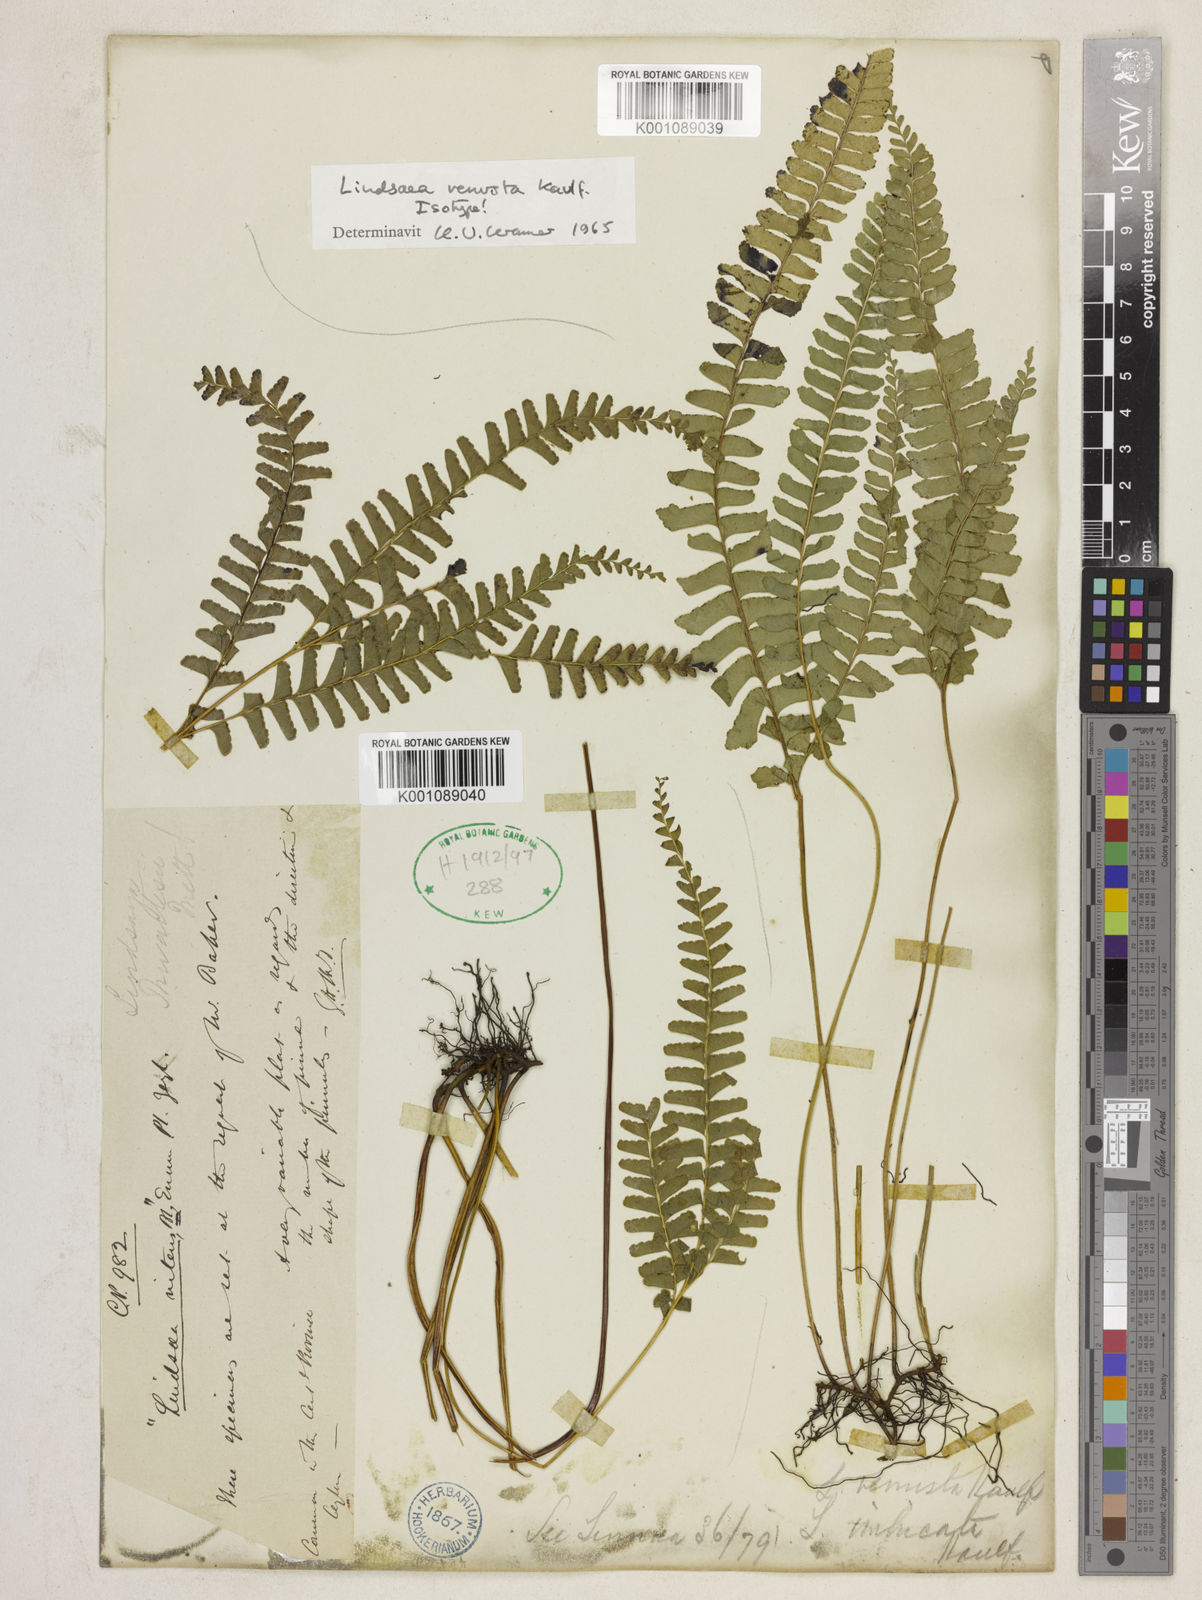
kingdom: Plantae
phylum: Tracheophyta
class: Polypodiopsida
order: Polypodiales
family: Lindsaeaceae
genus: Lindsaea
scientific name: Lindsaea venusta
